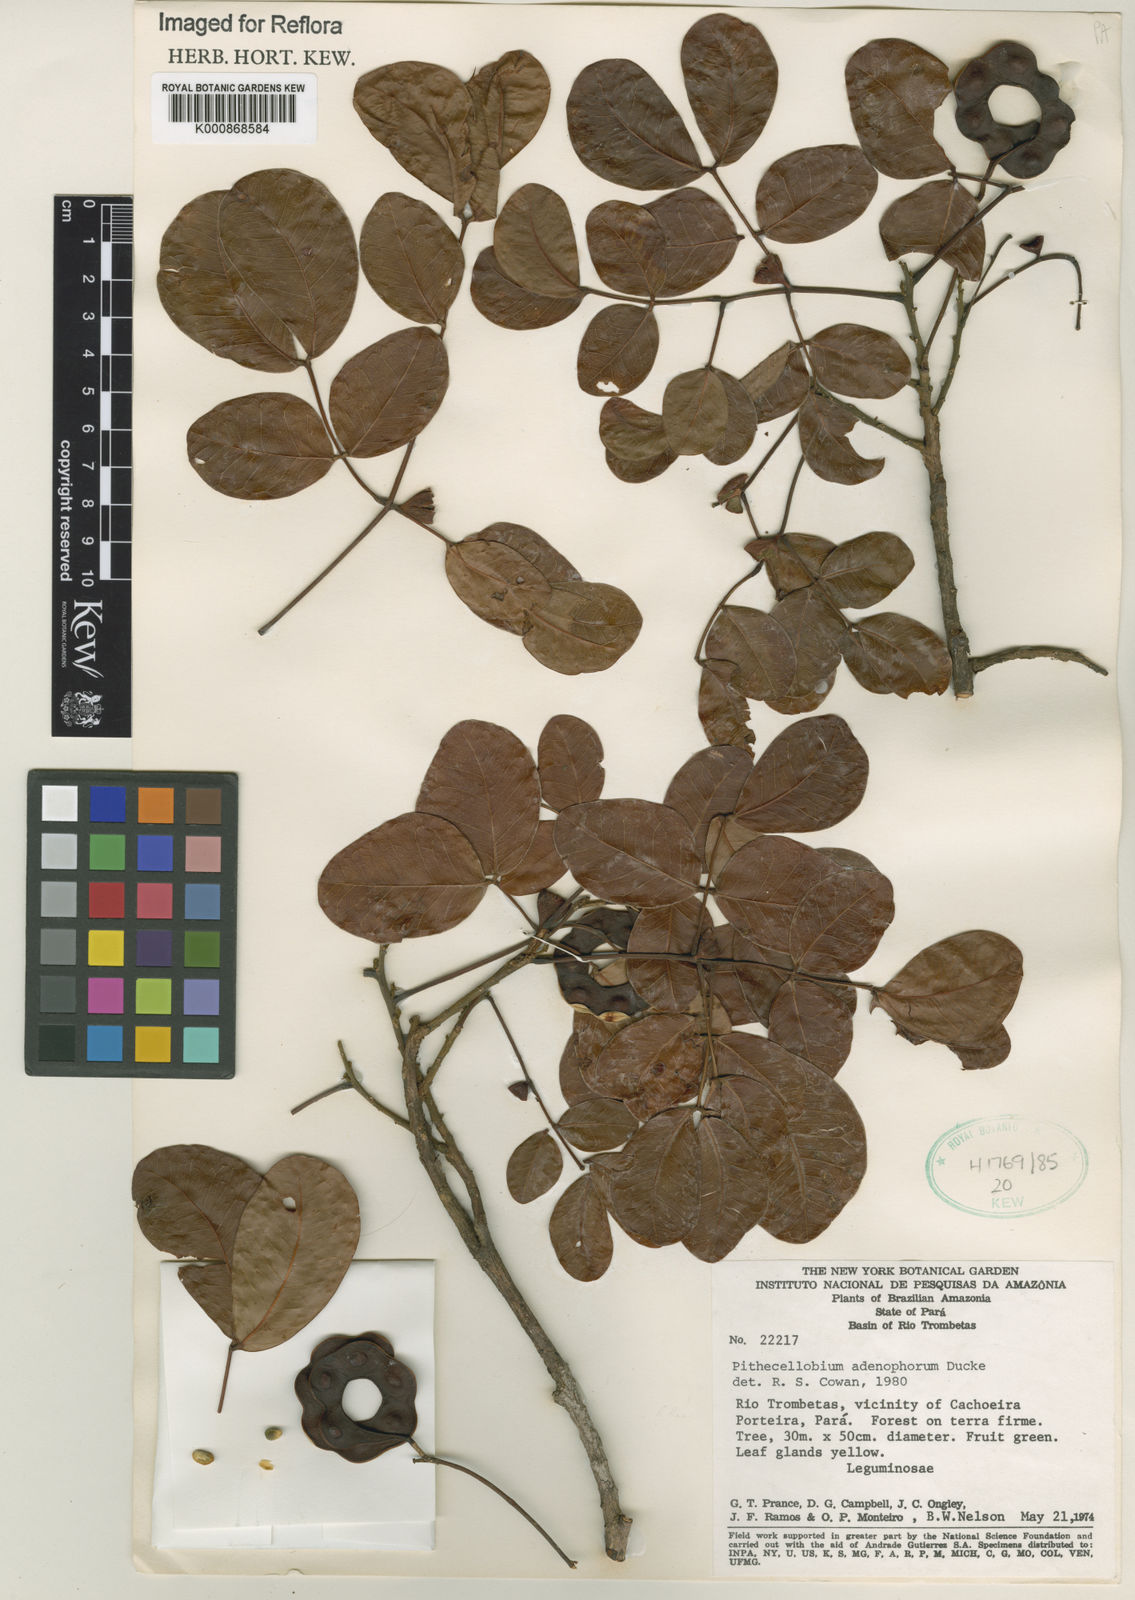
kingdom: Plantae
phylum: Tracheophyta
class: Magnoliopsida
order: Fabales
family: Fabaceae
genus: Jupunba
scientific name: Jupunba adenophora
